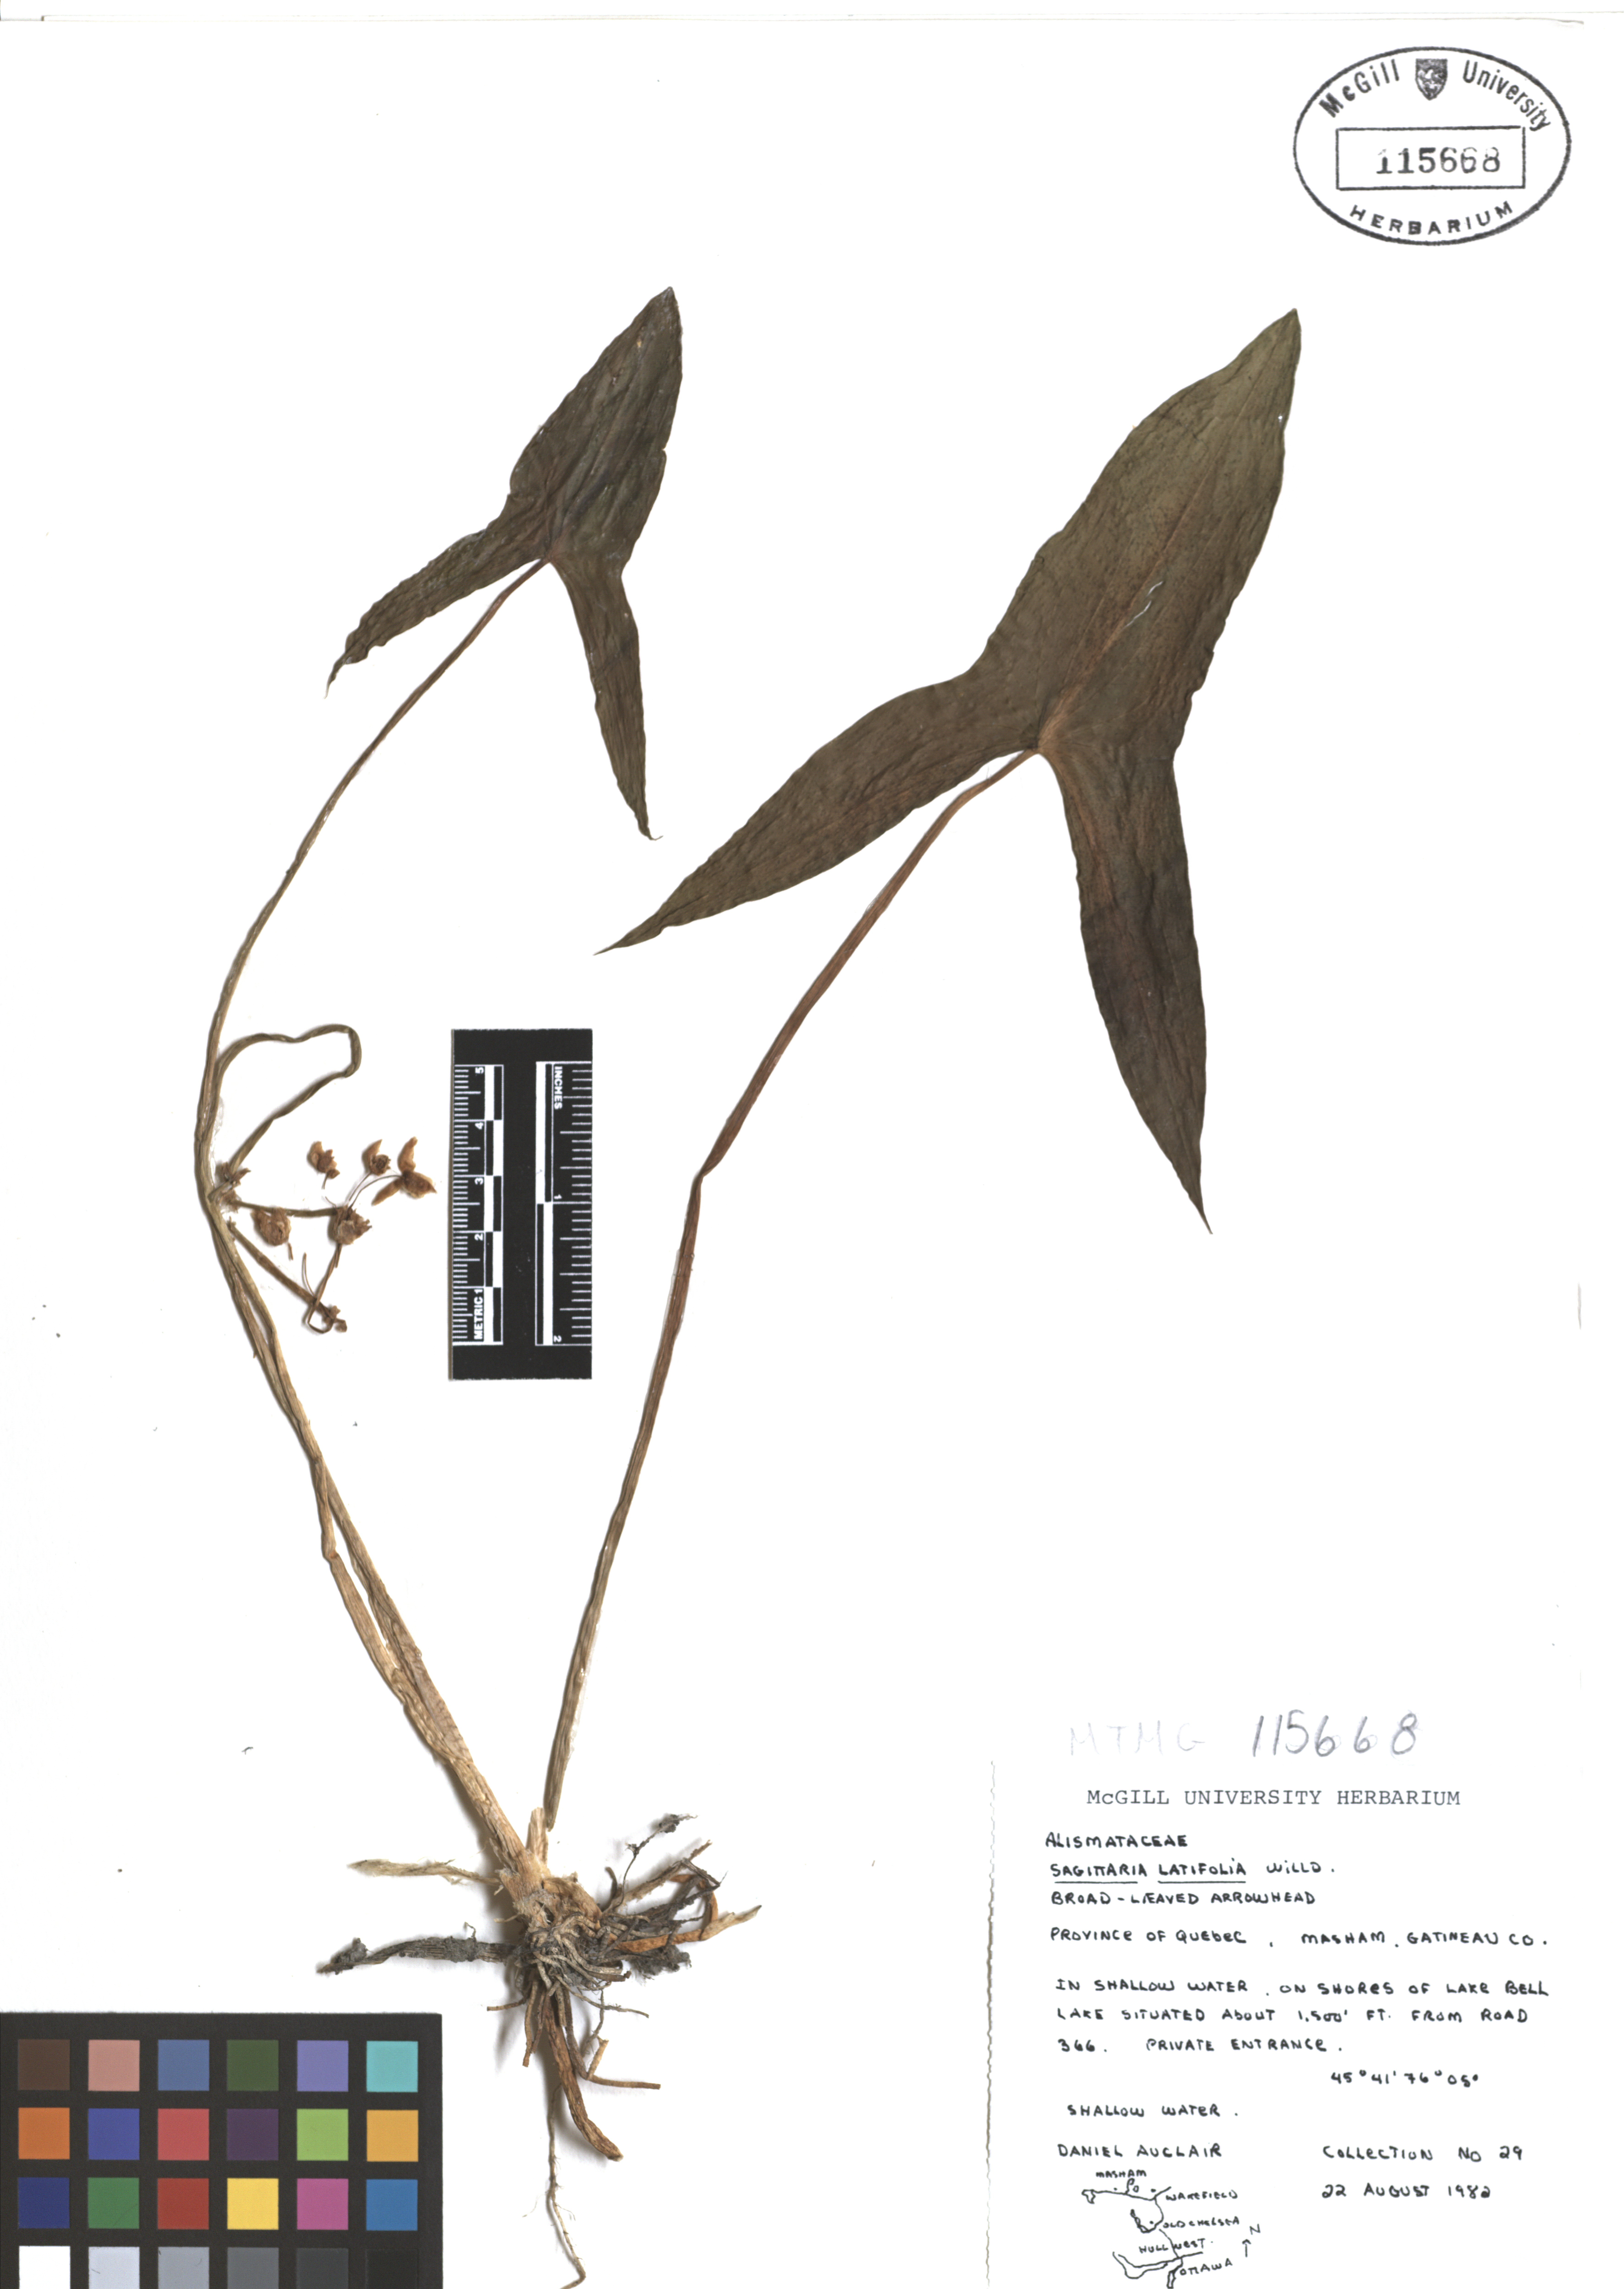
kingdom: Plantae
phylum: Tracheophyta
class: Liliopsida
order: Alismatales
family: Alismataceae
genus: Sagittaria
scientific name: Sagittaria latifolia
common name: Duck-potato
